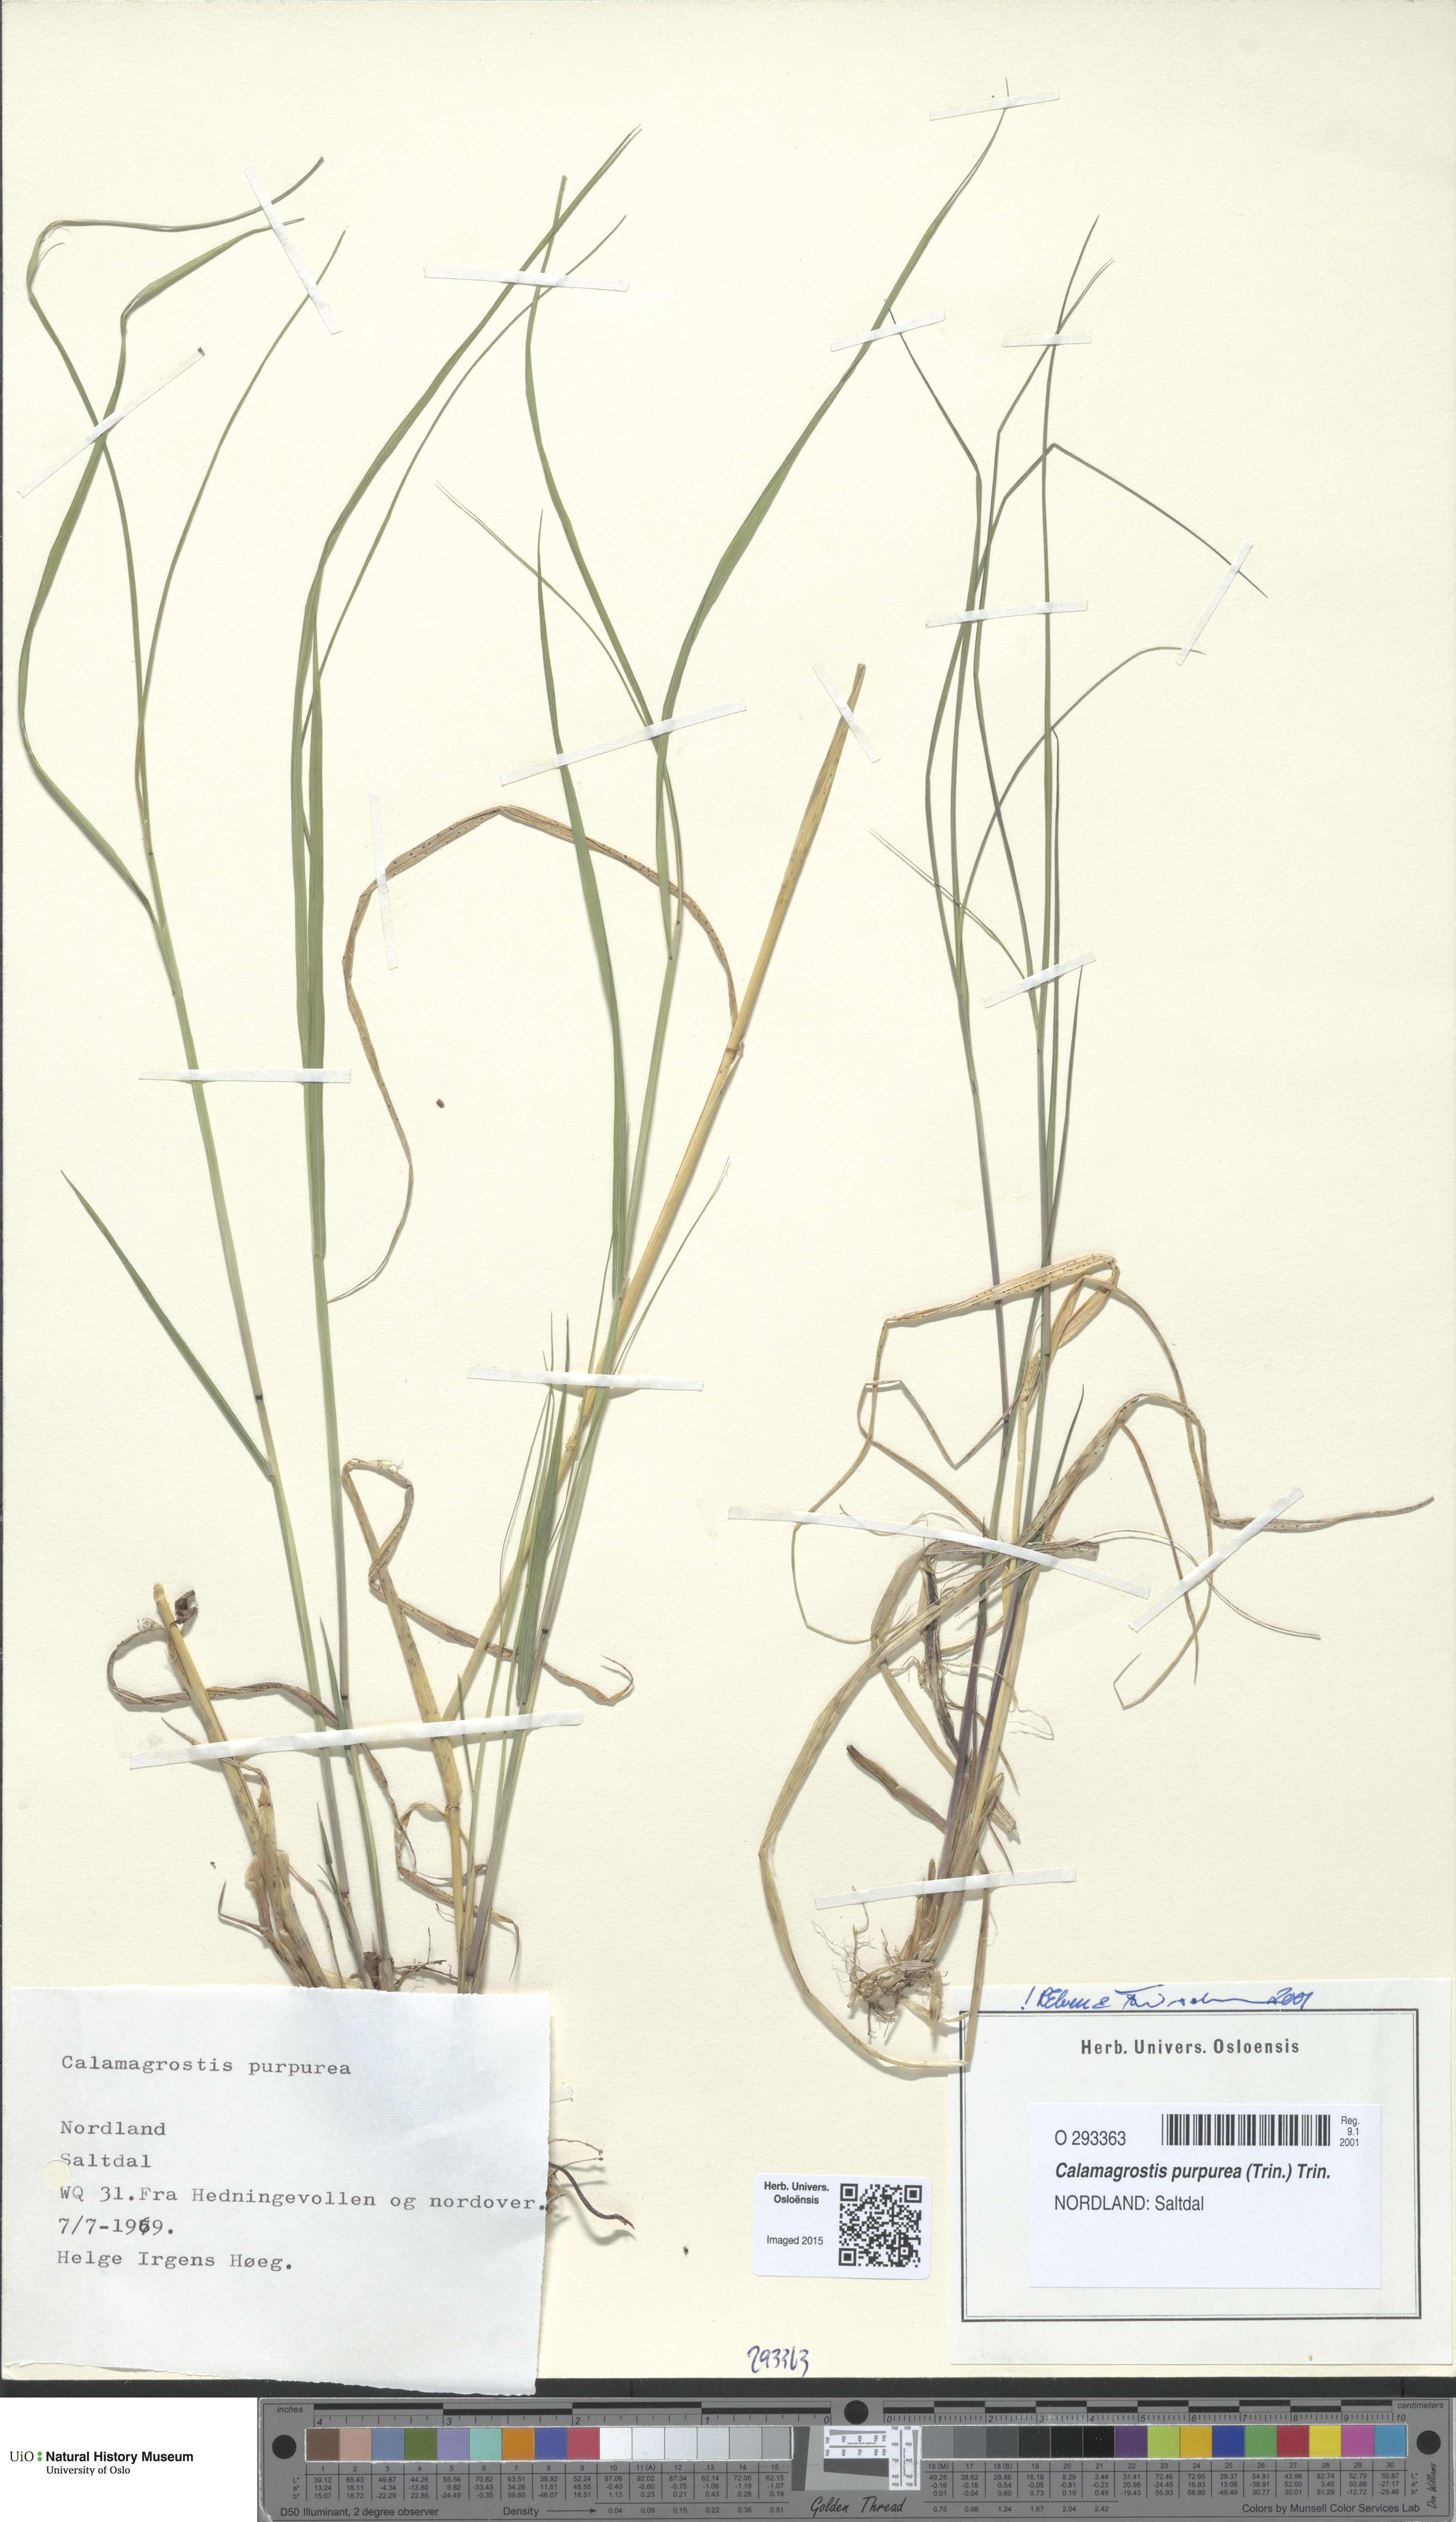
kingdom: Plantae
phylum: Tracheophyta
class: Liliopsida
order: Poales
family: Poaceae
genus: Calamagrostis
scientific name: Calamagrostis purpurea
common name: Scandinavian small-reed
